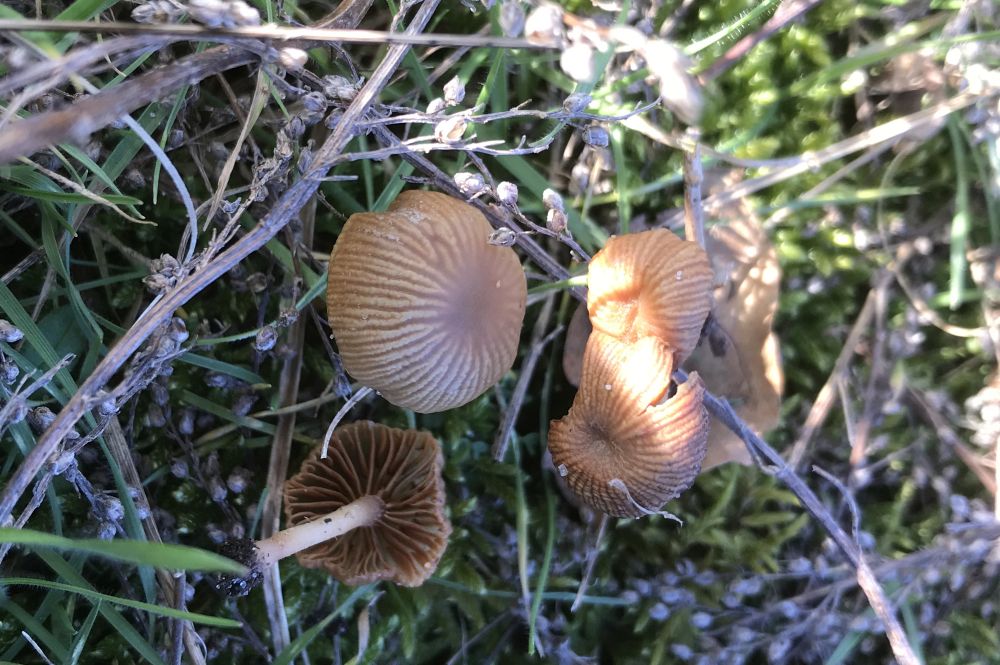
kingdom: Fungi
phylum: Basidiomycota
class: Agaricomycetes
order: Agaricales
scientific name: Agaricales
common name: champignonordenen
